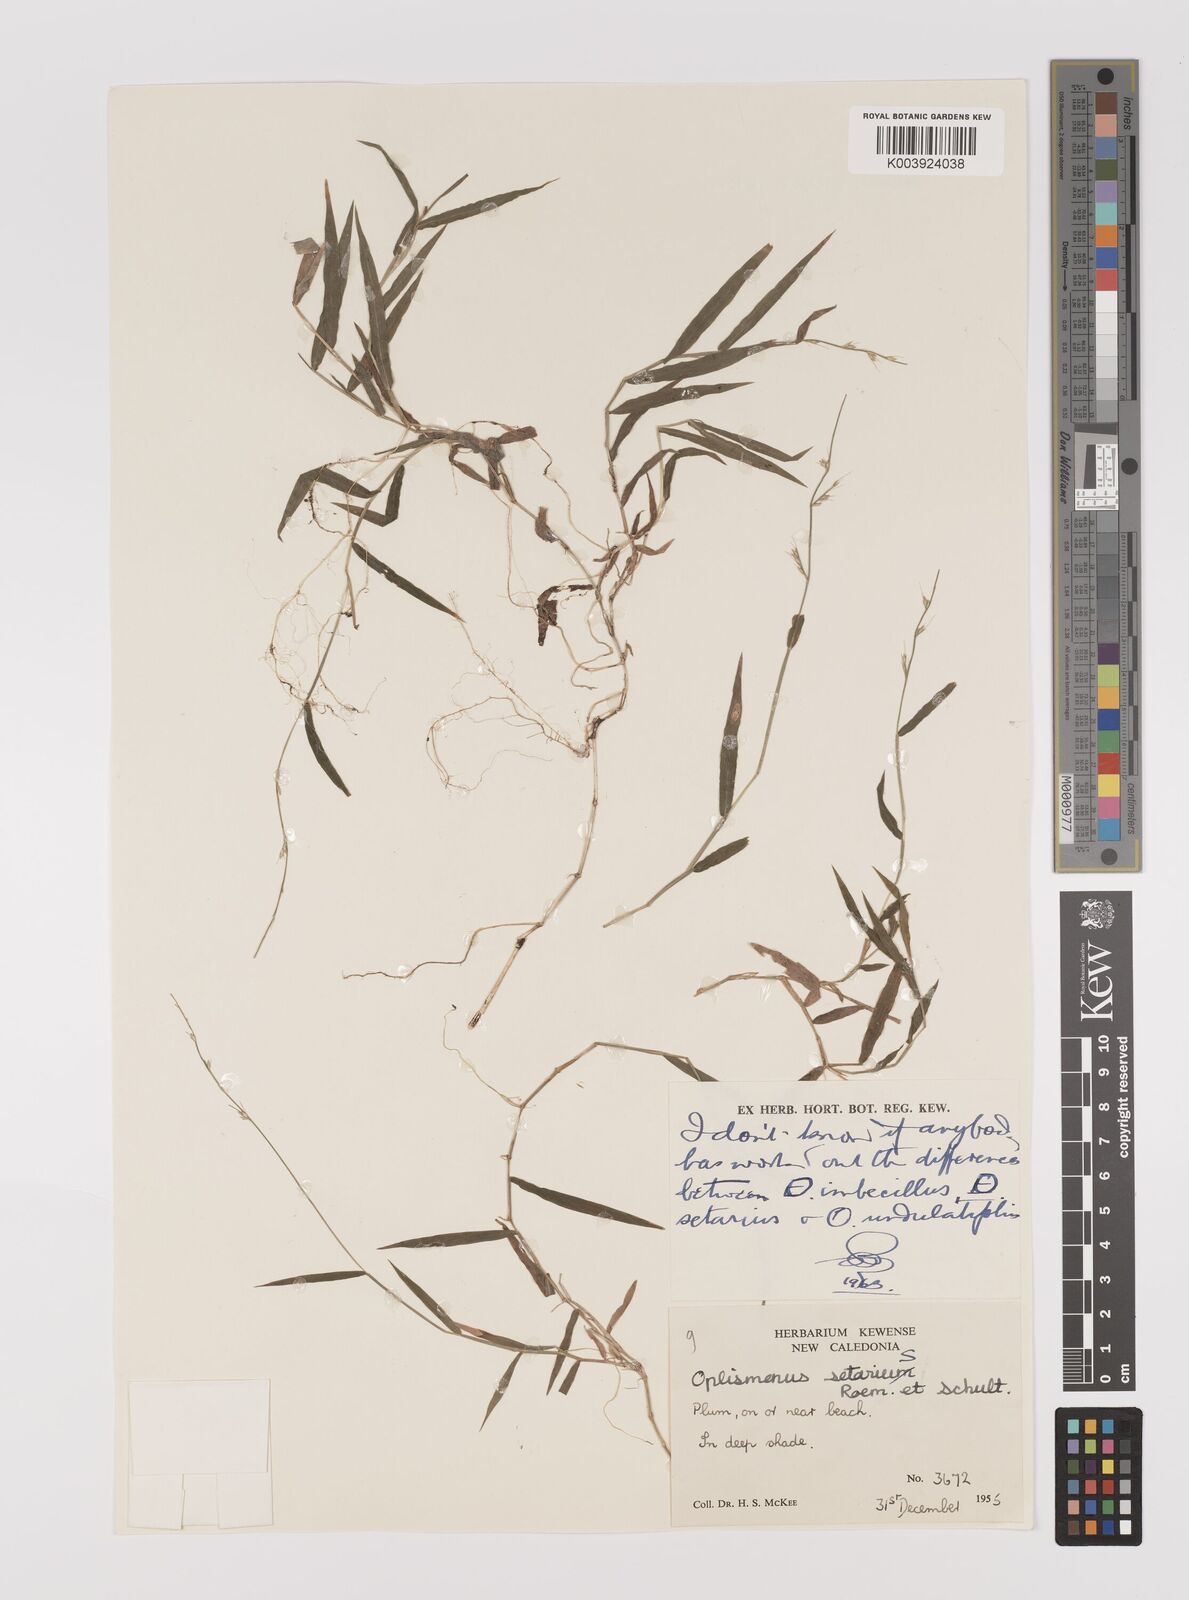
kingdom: Plantae
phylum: Tracheophyta
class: Liliopsida
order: Poales
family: Poaceae
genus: Oplismenus
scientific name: Oplismenus hirtellus
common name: Basketgrass
